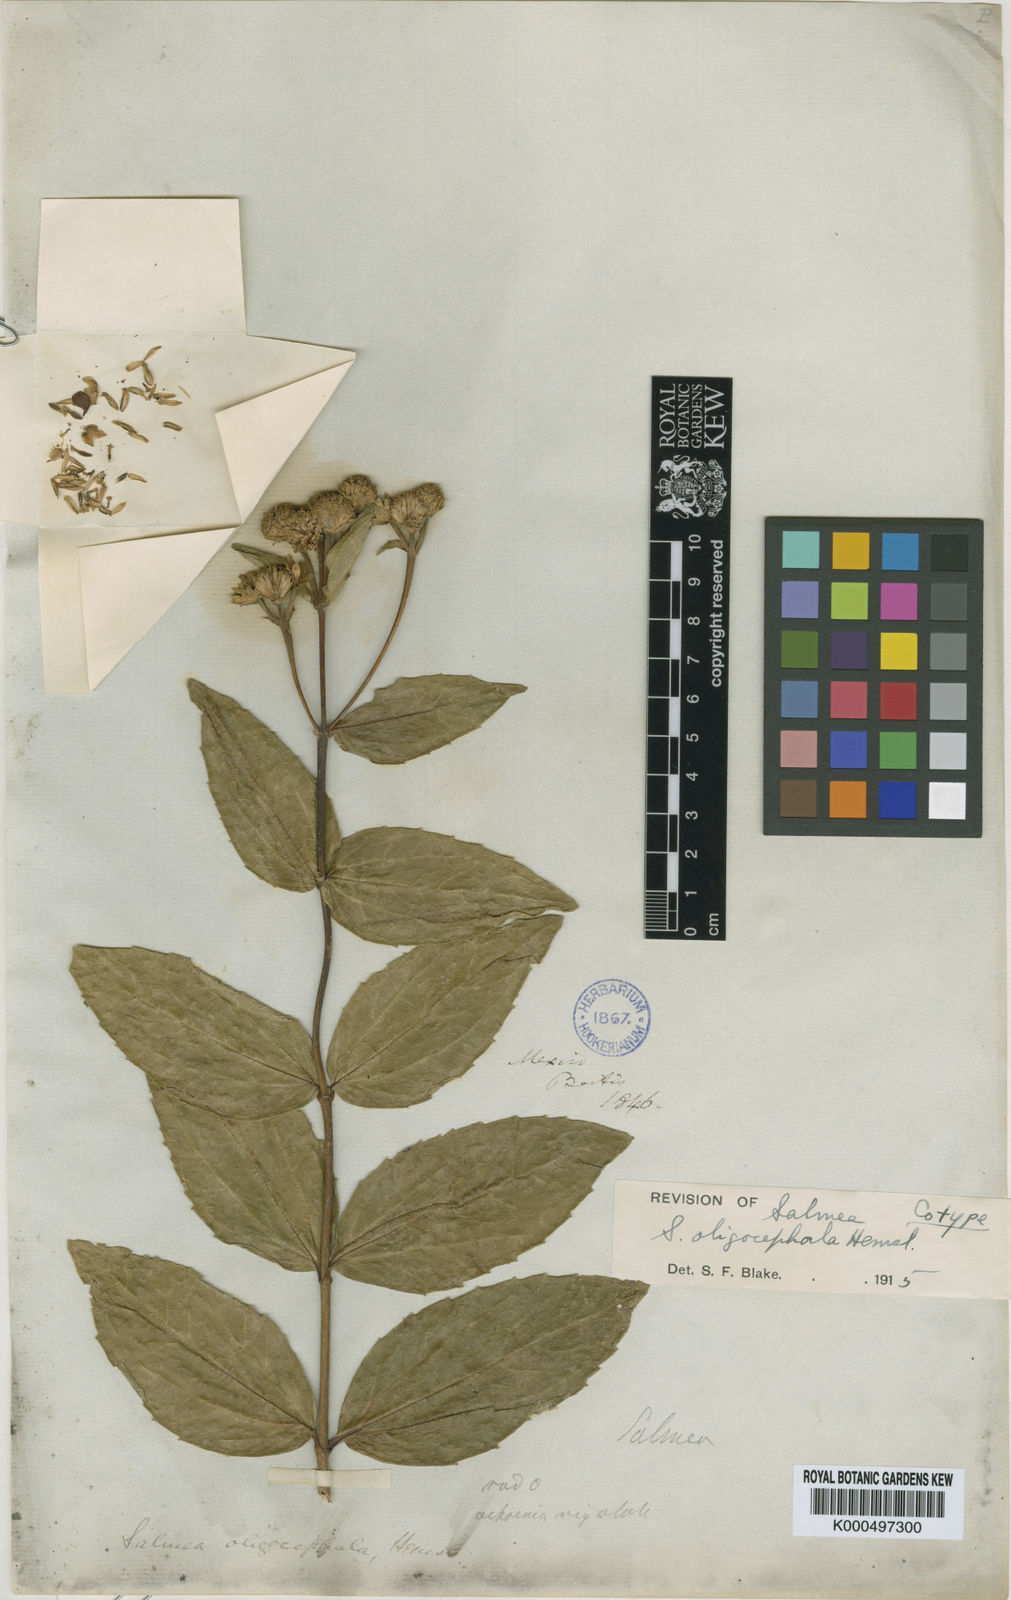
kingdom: Plantae
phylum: Tracheophyta
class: Magnoliopsida
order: Asterales
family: Asteraceae
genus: Salmea
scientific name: Salmea oligocephala
